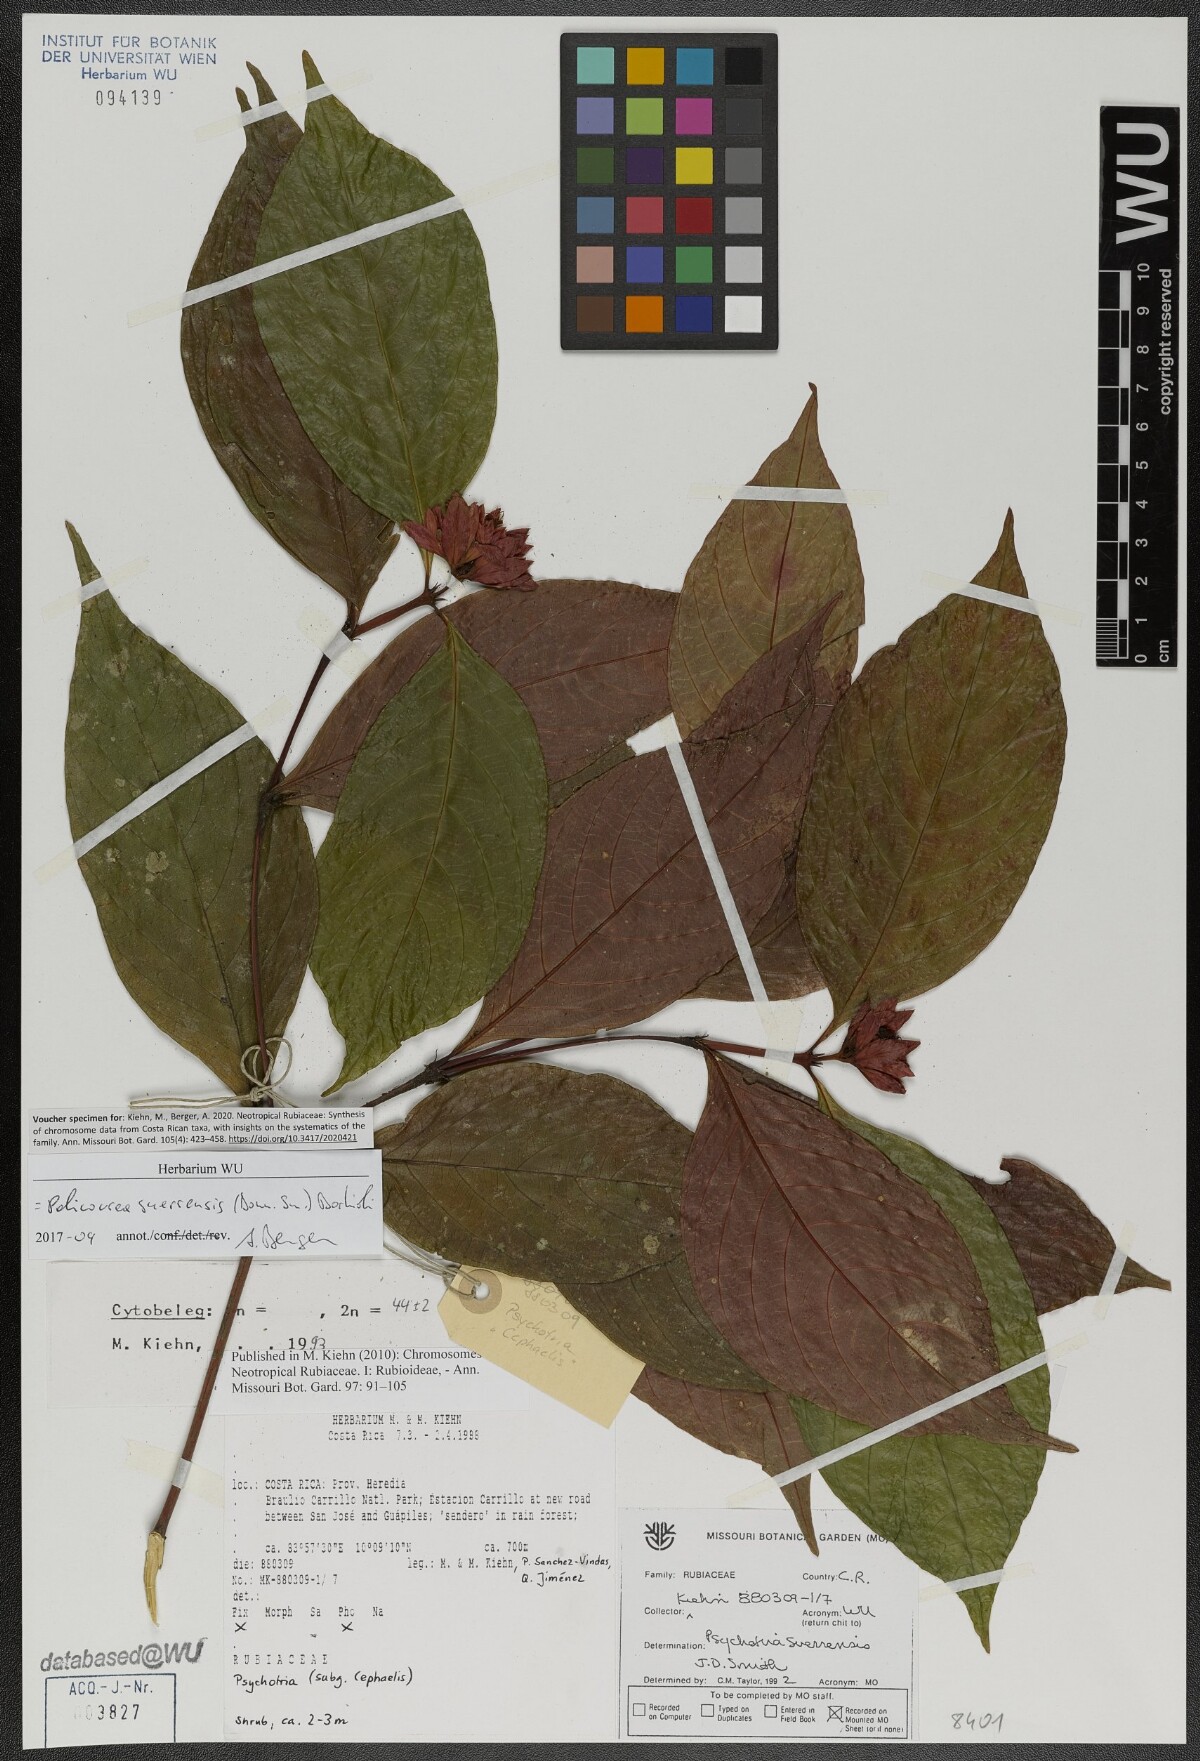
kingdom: Plantae
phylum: Tracheophyta
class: Magnoliopsida
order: Gentianales
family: Rubiaceae
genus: Palicourea
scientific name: Palicourea suerrensis
